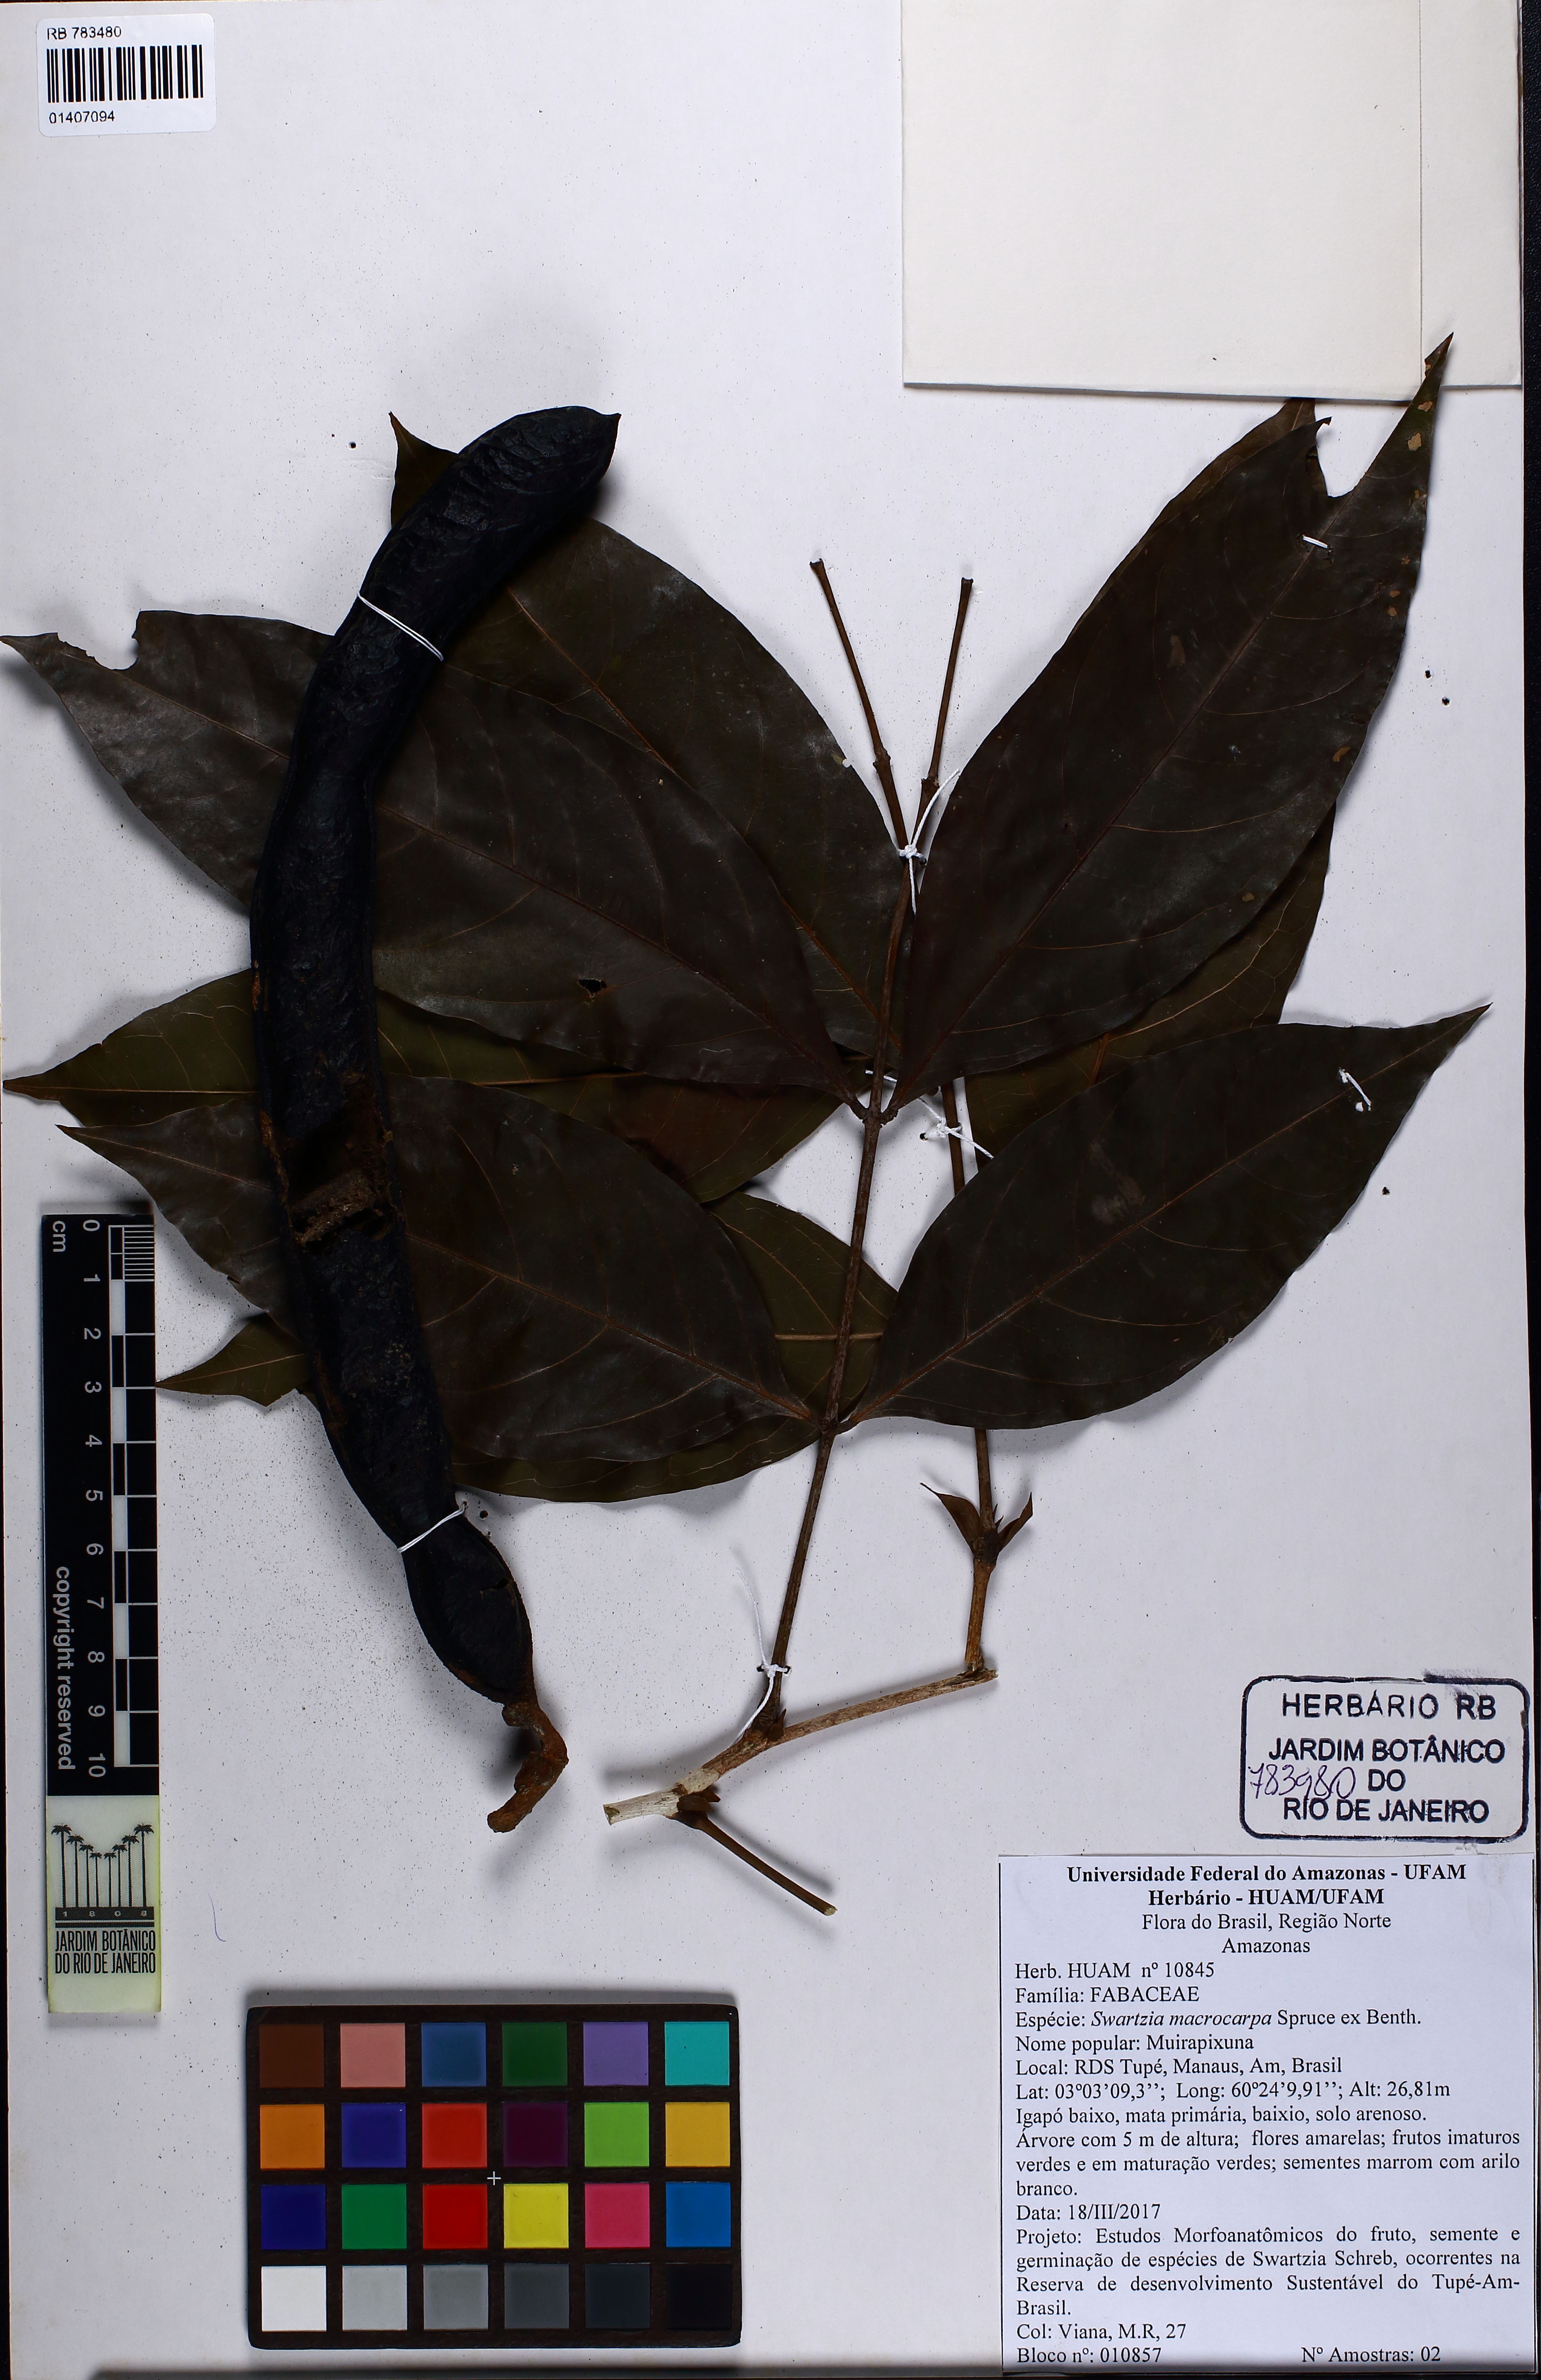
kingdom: Plantae
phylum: Tracheophyta
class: Magnoliopsida
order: Fabales
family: Fabaceae
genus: Swartzia
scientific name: Swartzia macrocarpa
